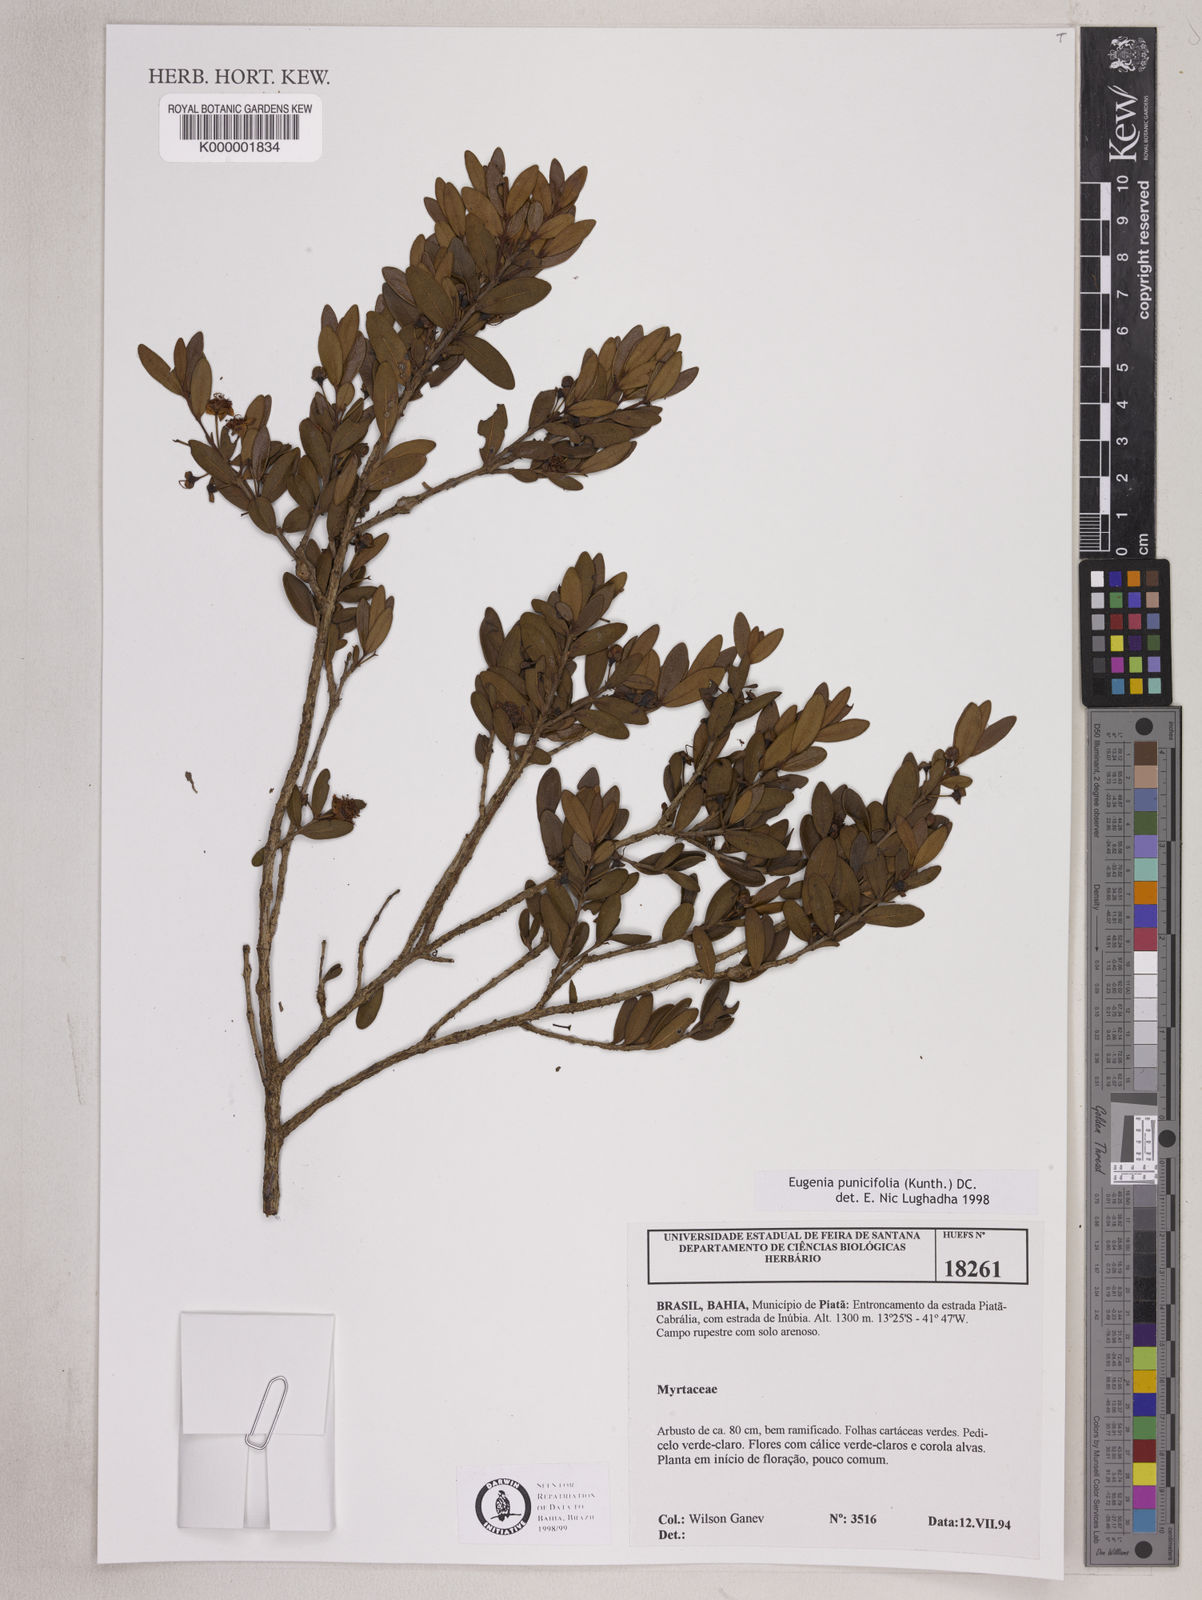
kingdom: Plantae
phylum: Tracheophyta
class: Magnoliopsida
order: Myrtales
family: Myrtaceae
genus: Eugenia
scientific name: Eugenia punicifolia
